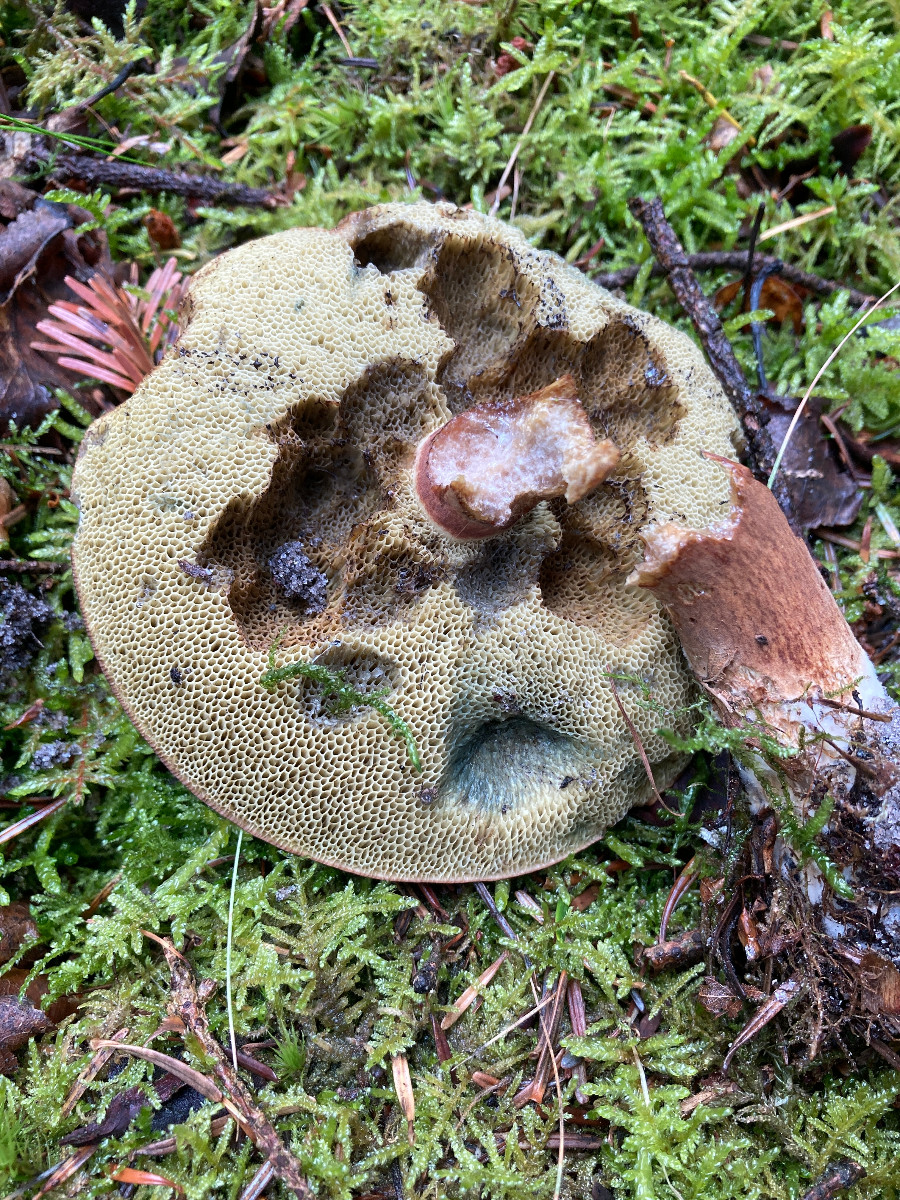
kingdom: Fungi
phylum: Basidiomycota
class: Agaricomycetes
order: Boletales
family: Boletaceae
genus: Imleria
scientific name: Imleria badia
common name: brunstokket rørhat
